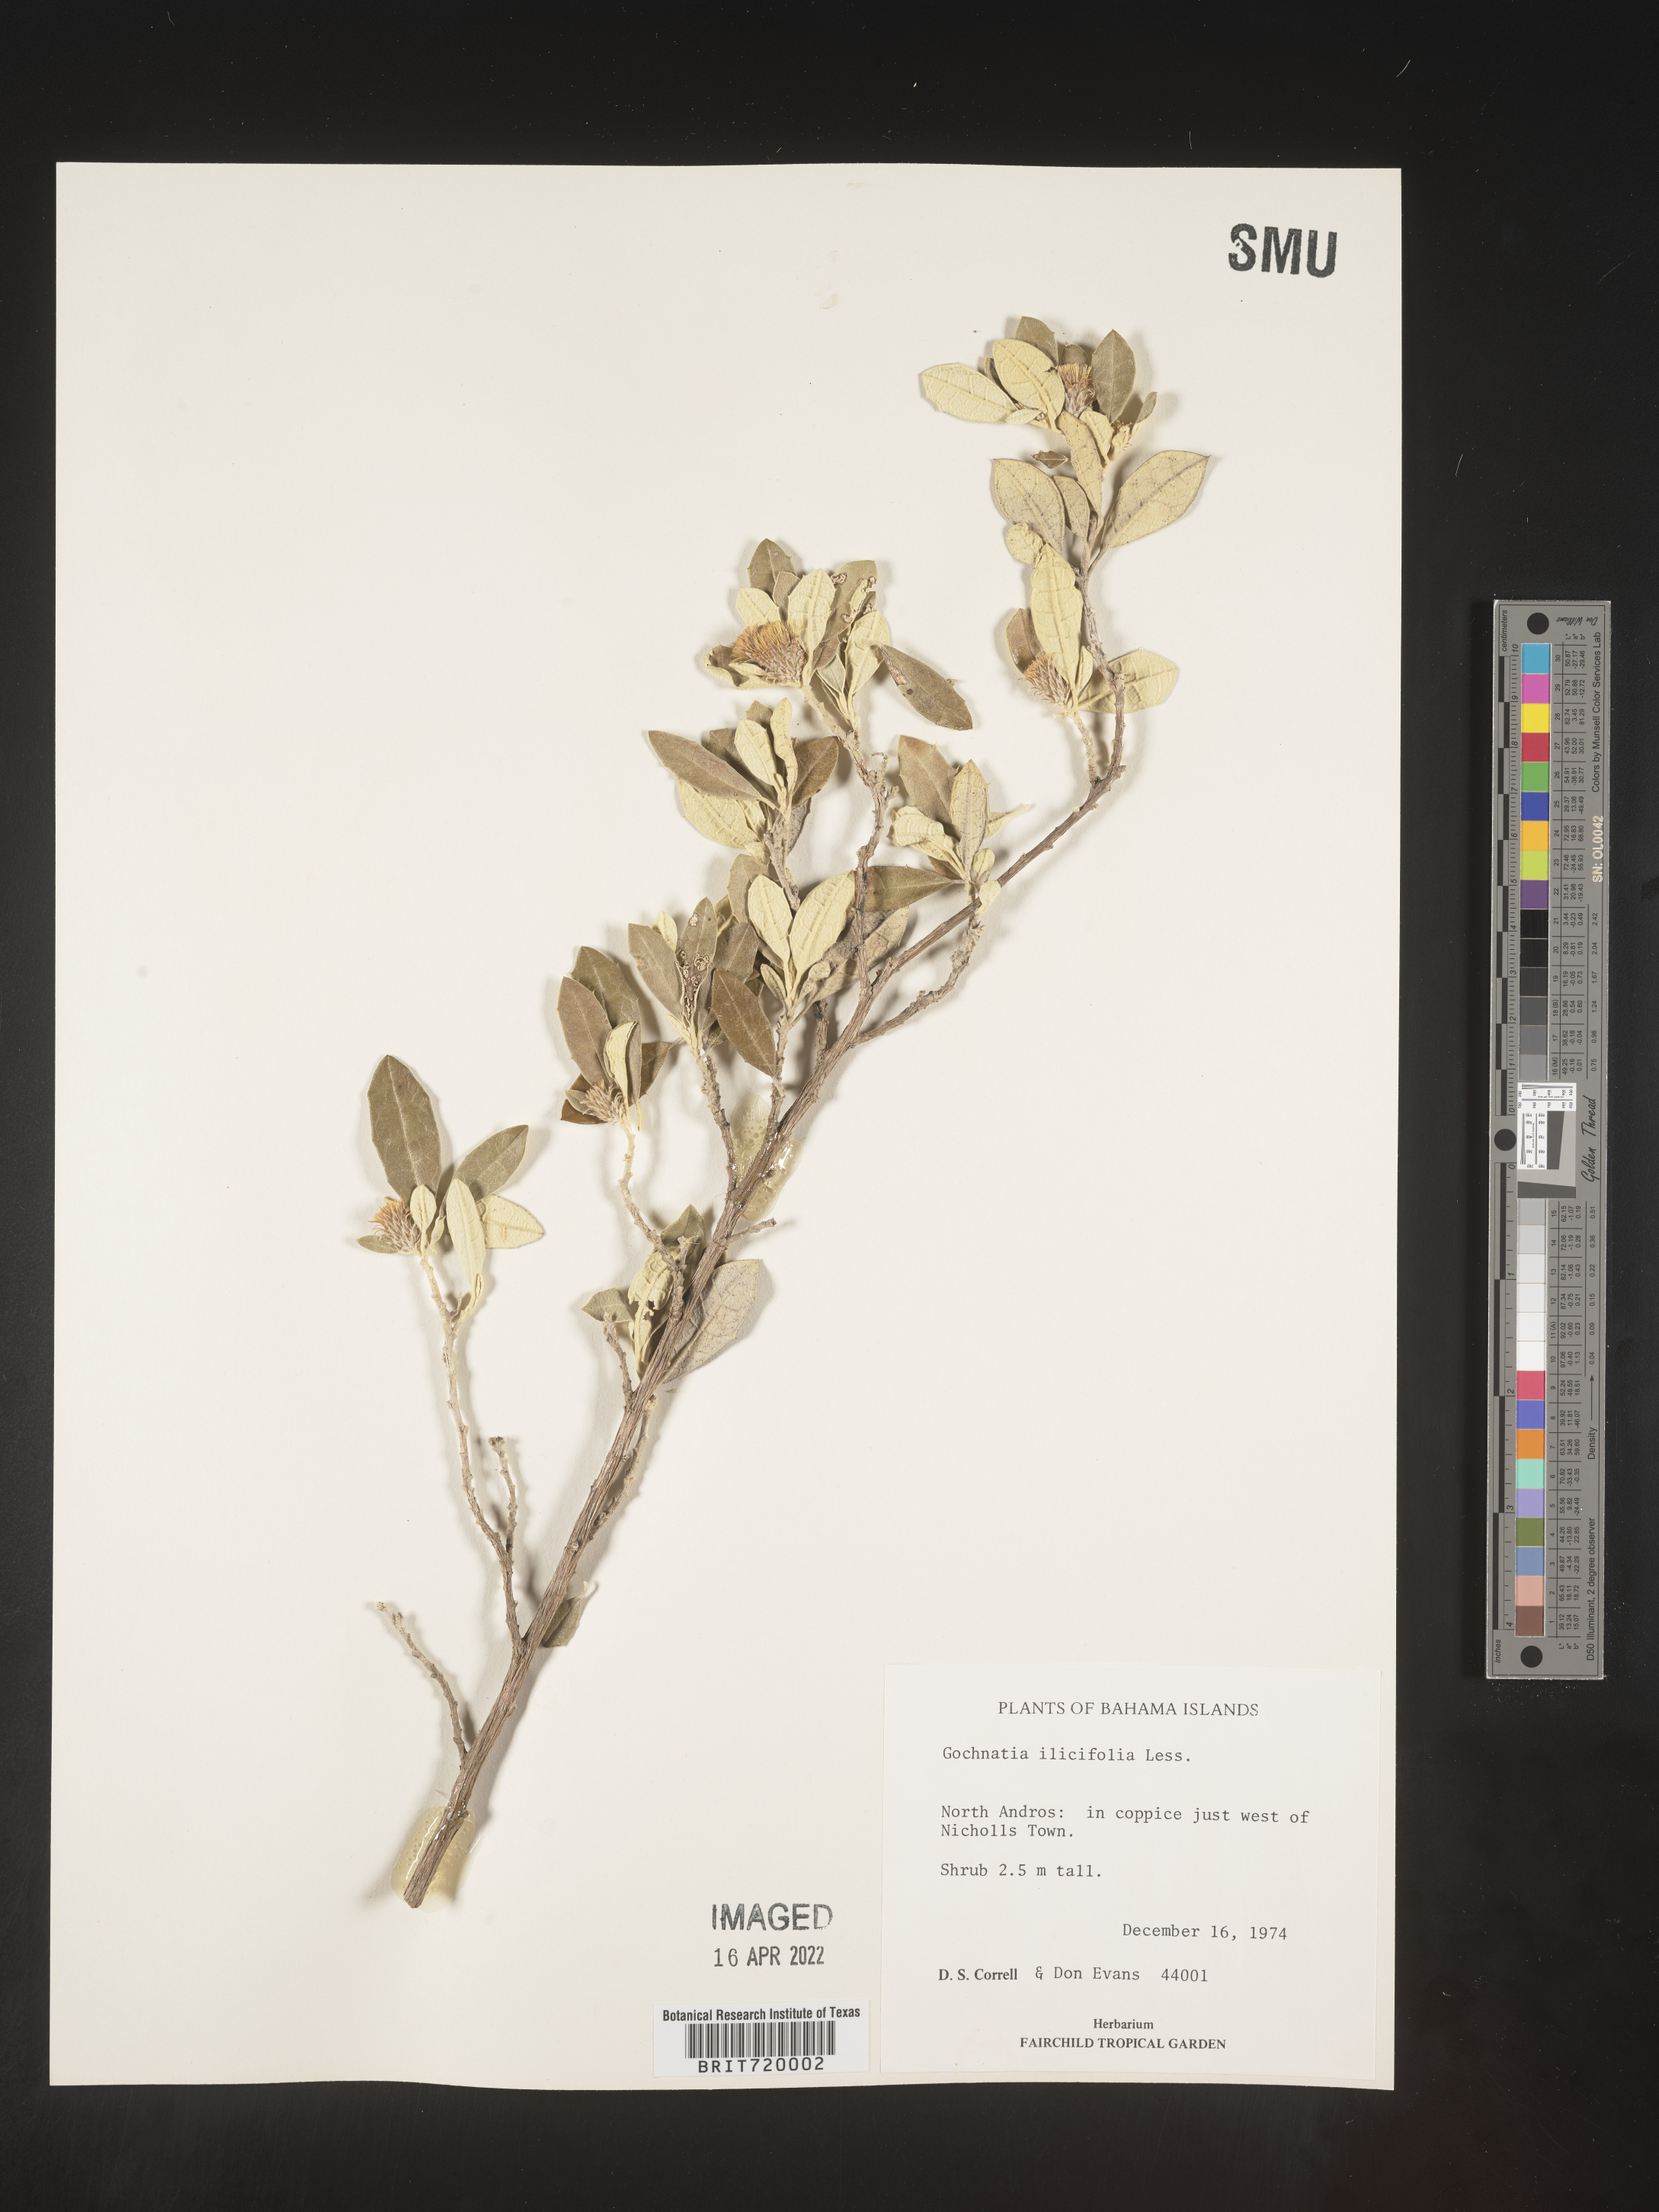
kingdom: Plantae
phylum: Tracheophyta
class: Magnoliopsida
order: Asterales
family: Asteraceae
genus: Gochnatia
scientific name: Gochnatia
